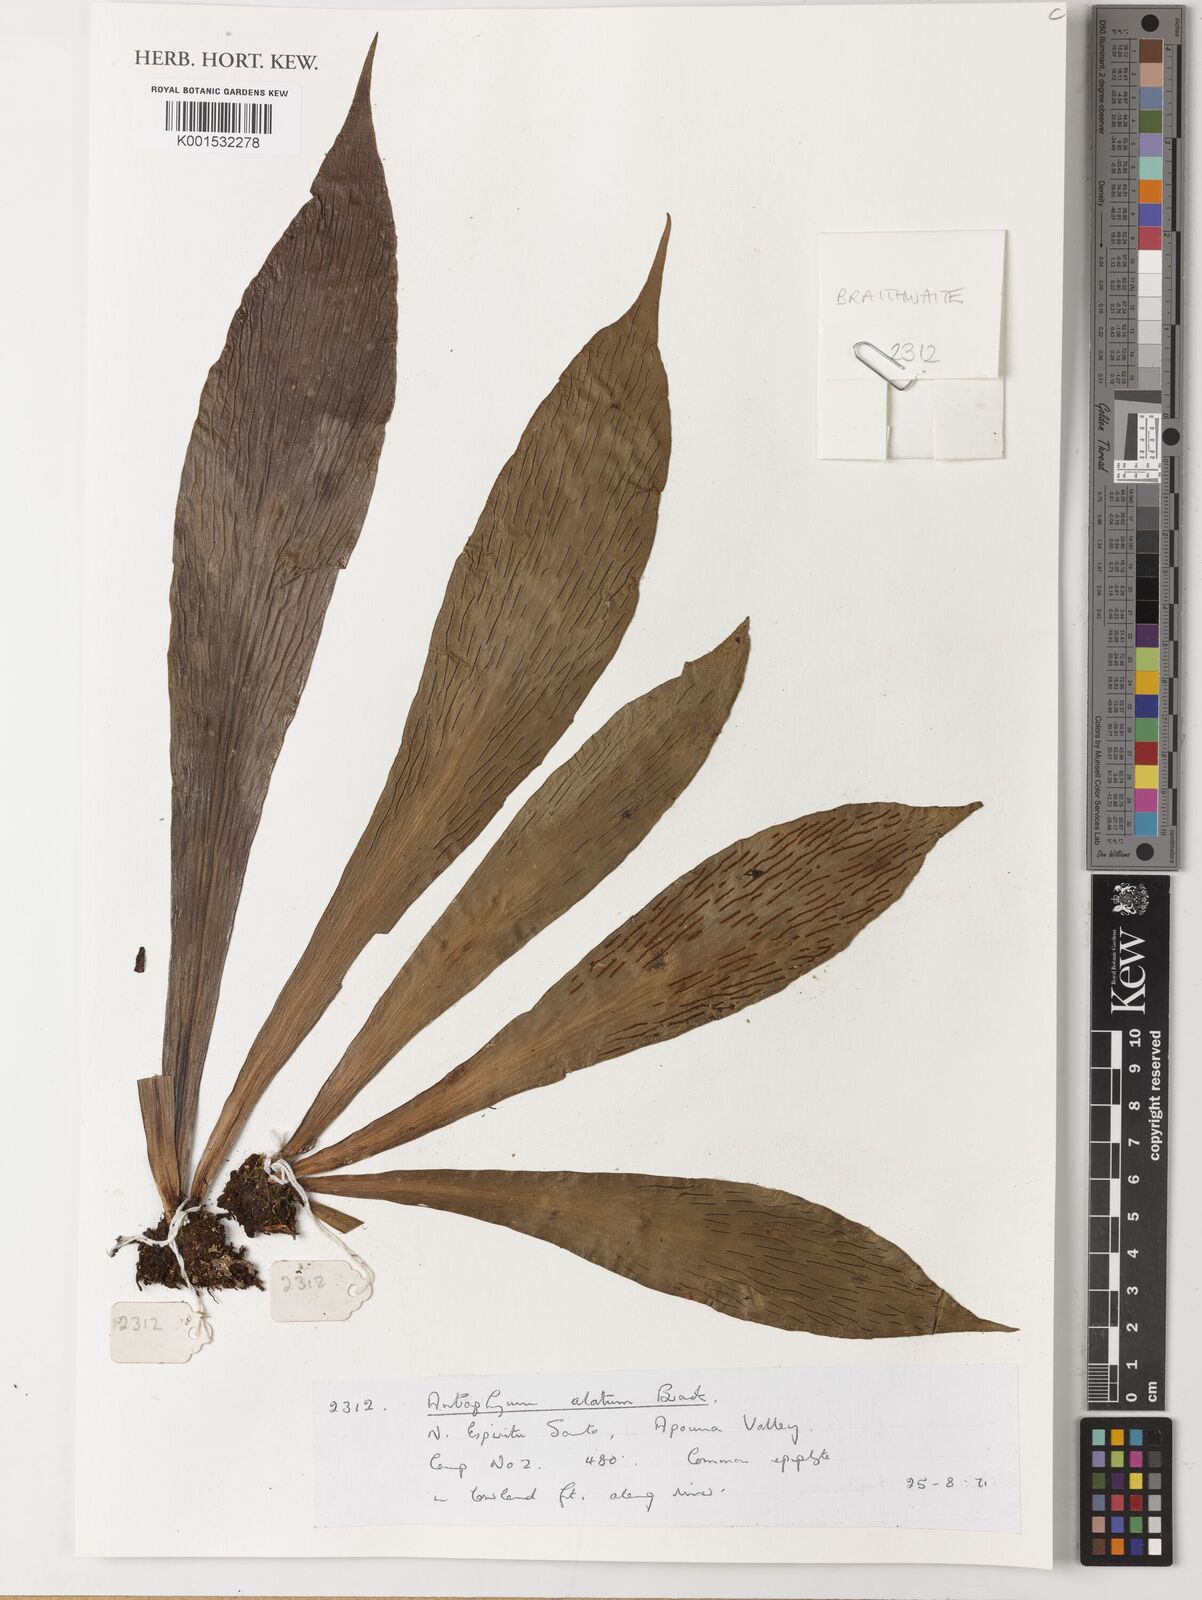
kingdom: Plantae
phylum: Tracheophyta
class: Polypodiopsida
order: Polypodiales
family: Pteridaceae
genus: Antrophyum
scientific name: Antrophyum callifolium
